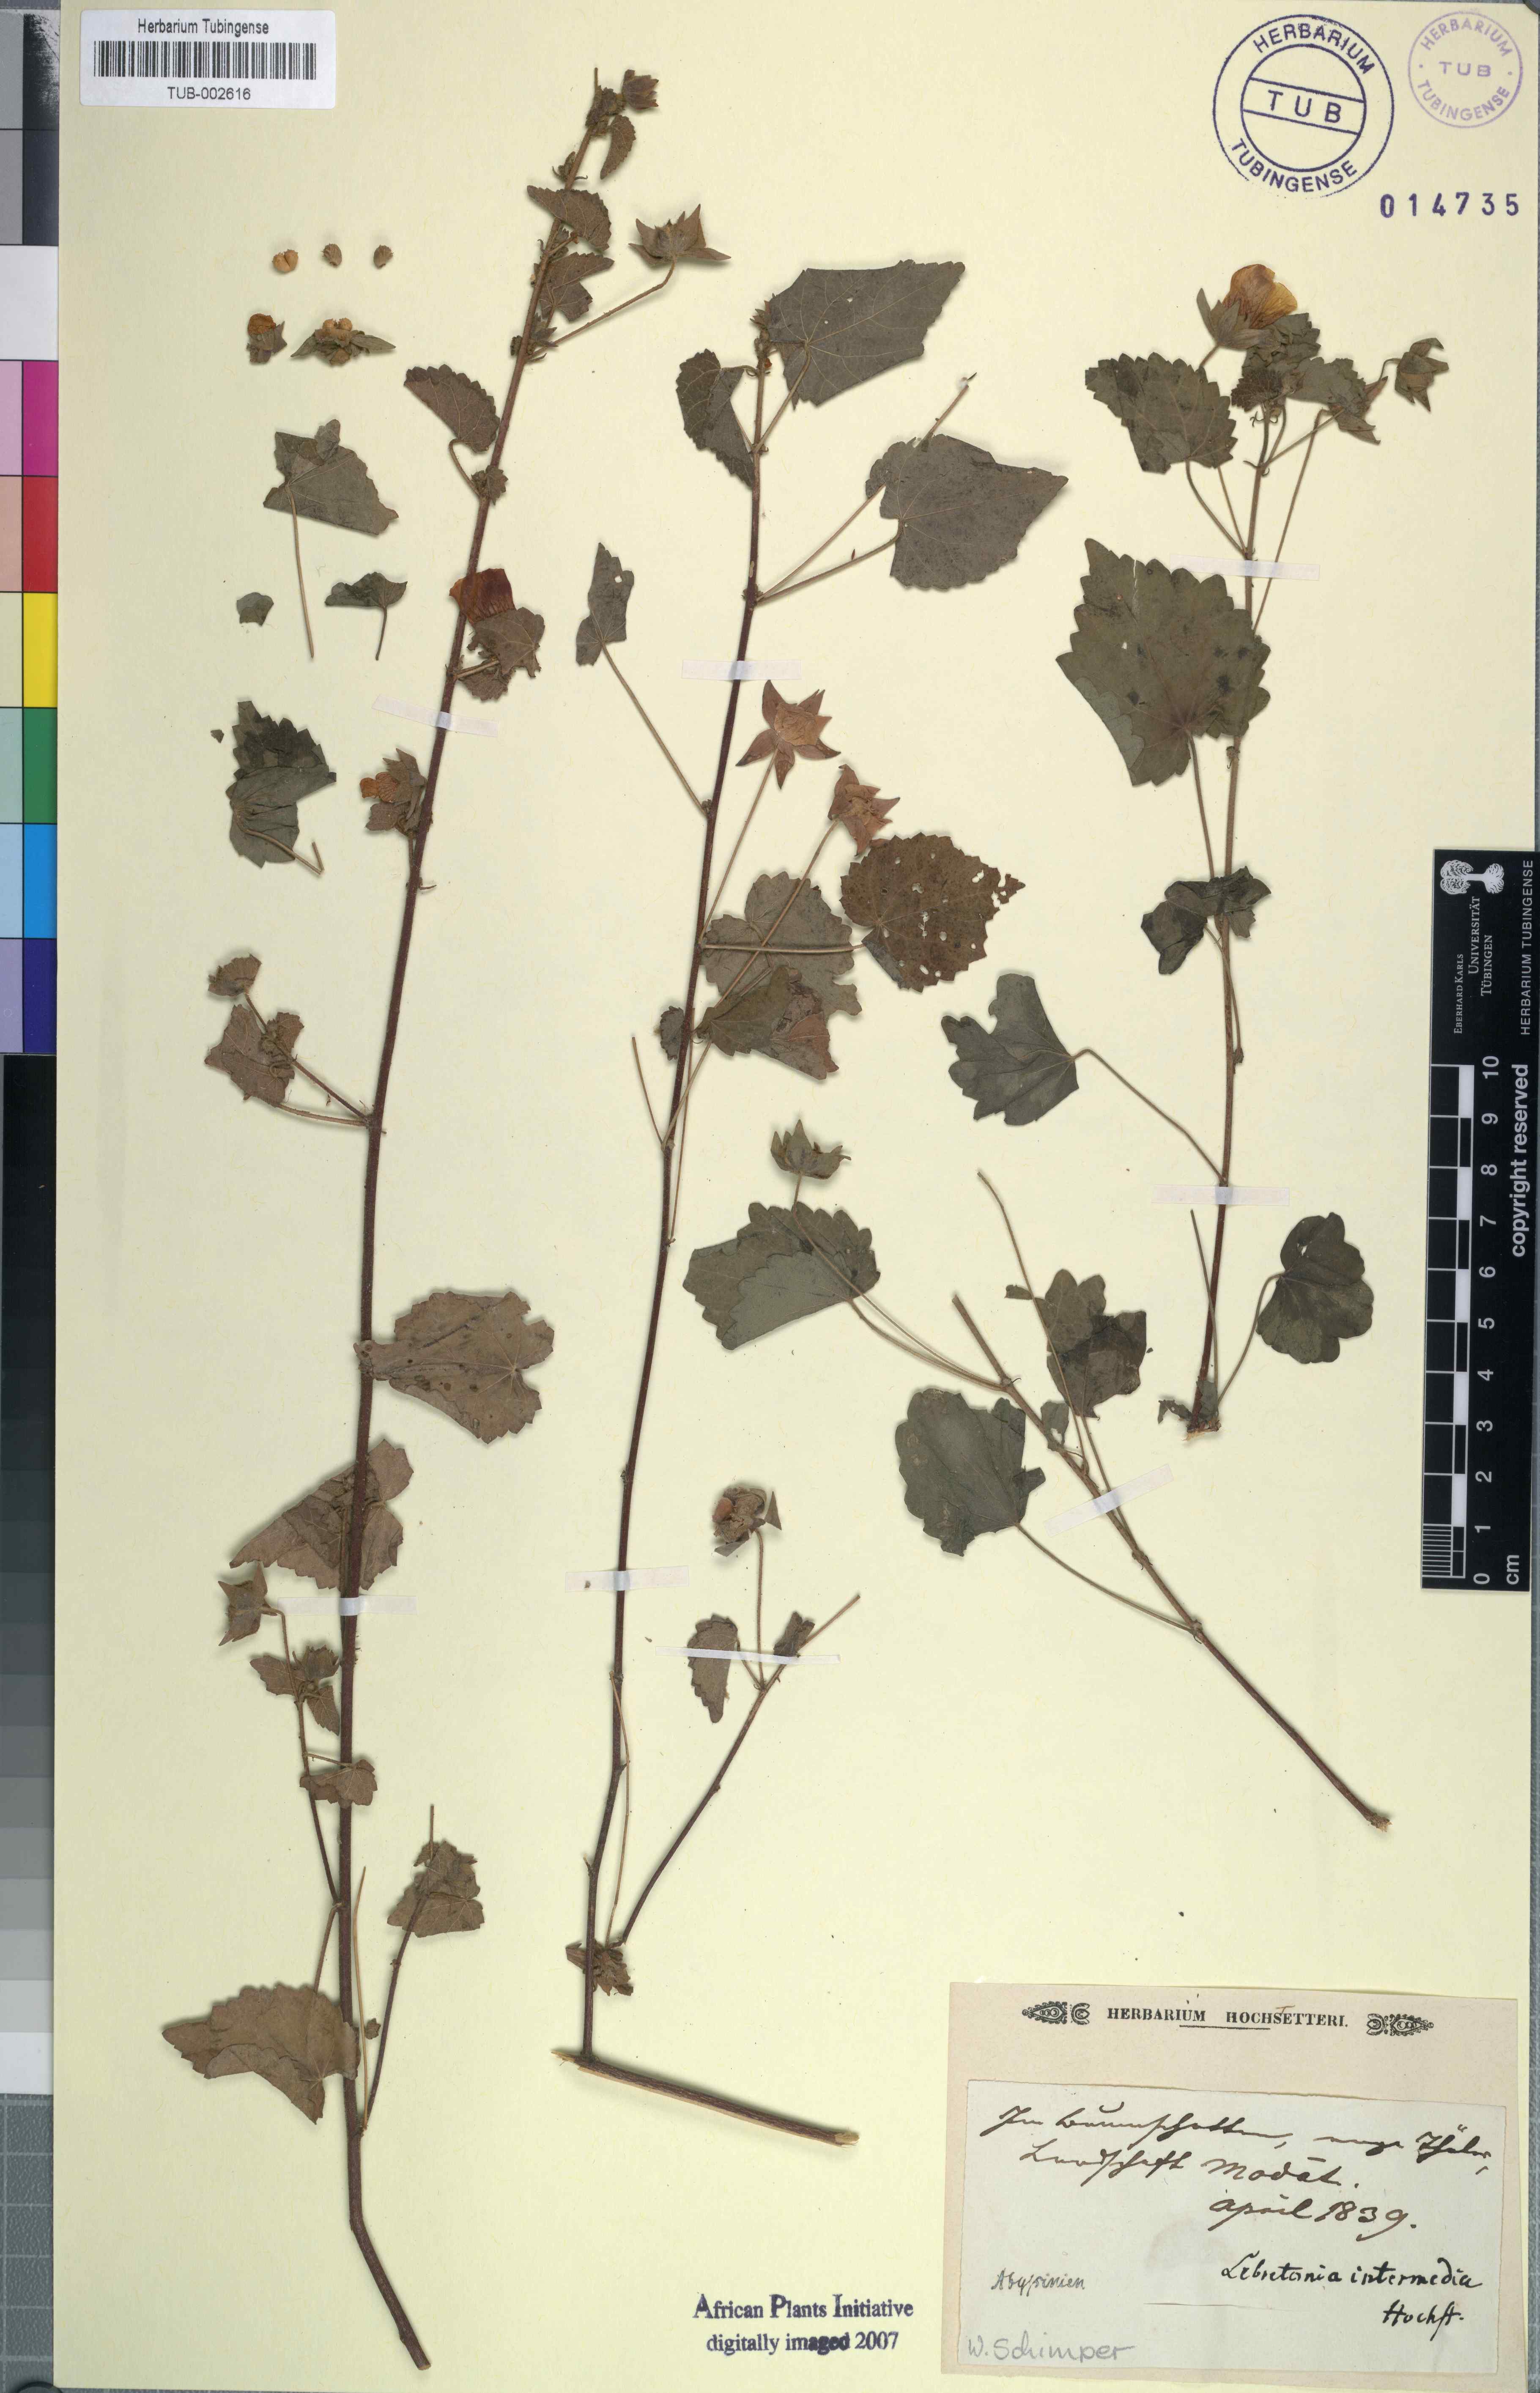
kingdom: Plantae
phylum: Tracheophyta
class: Magnoliopsida
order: Malvales
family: Malvaceae
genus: Pavonia
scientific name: Pavonia
